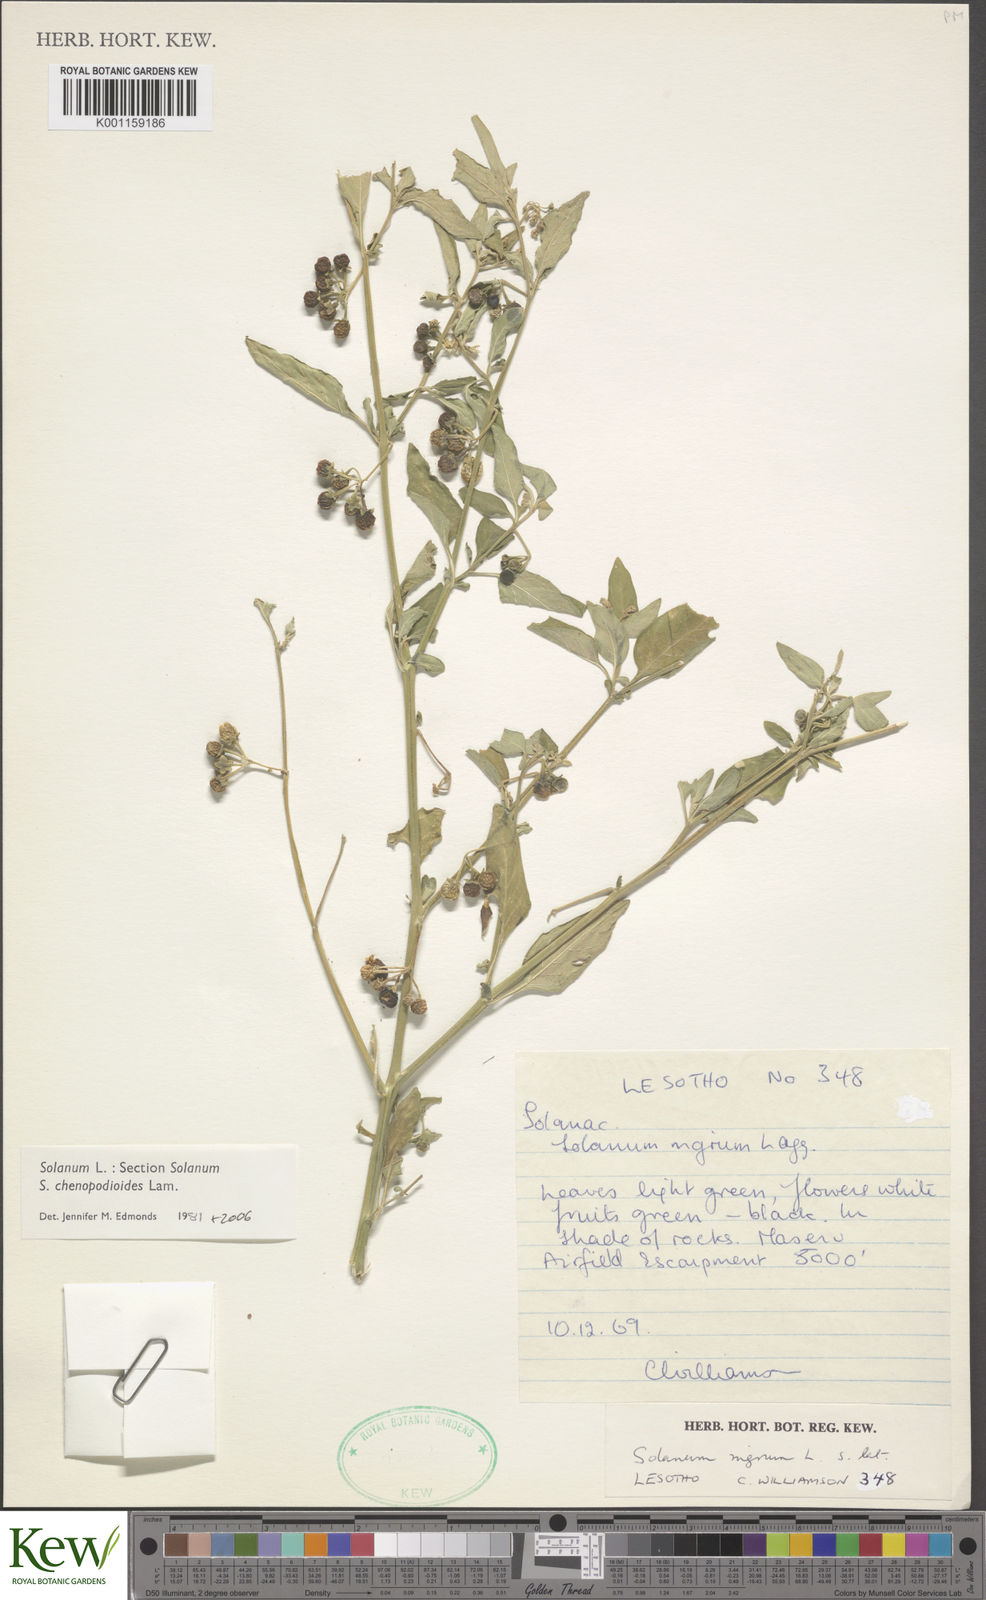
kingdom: Plantae
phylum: Tracheophyta
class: Magnoliopsida
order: Solanales
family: Solanaceae
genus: Solanum
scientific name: Solanum chenopodioides
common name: Tall nightshade
